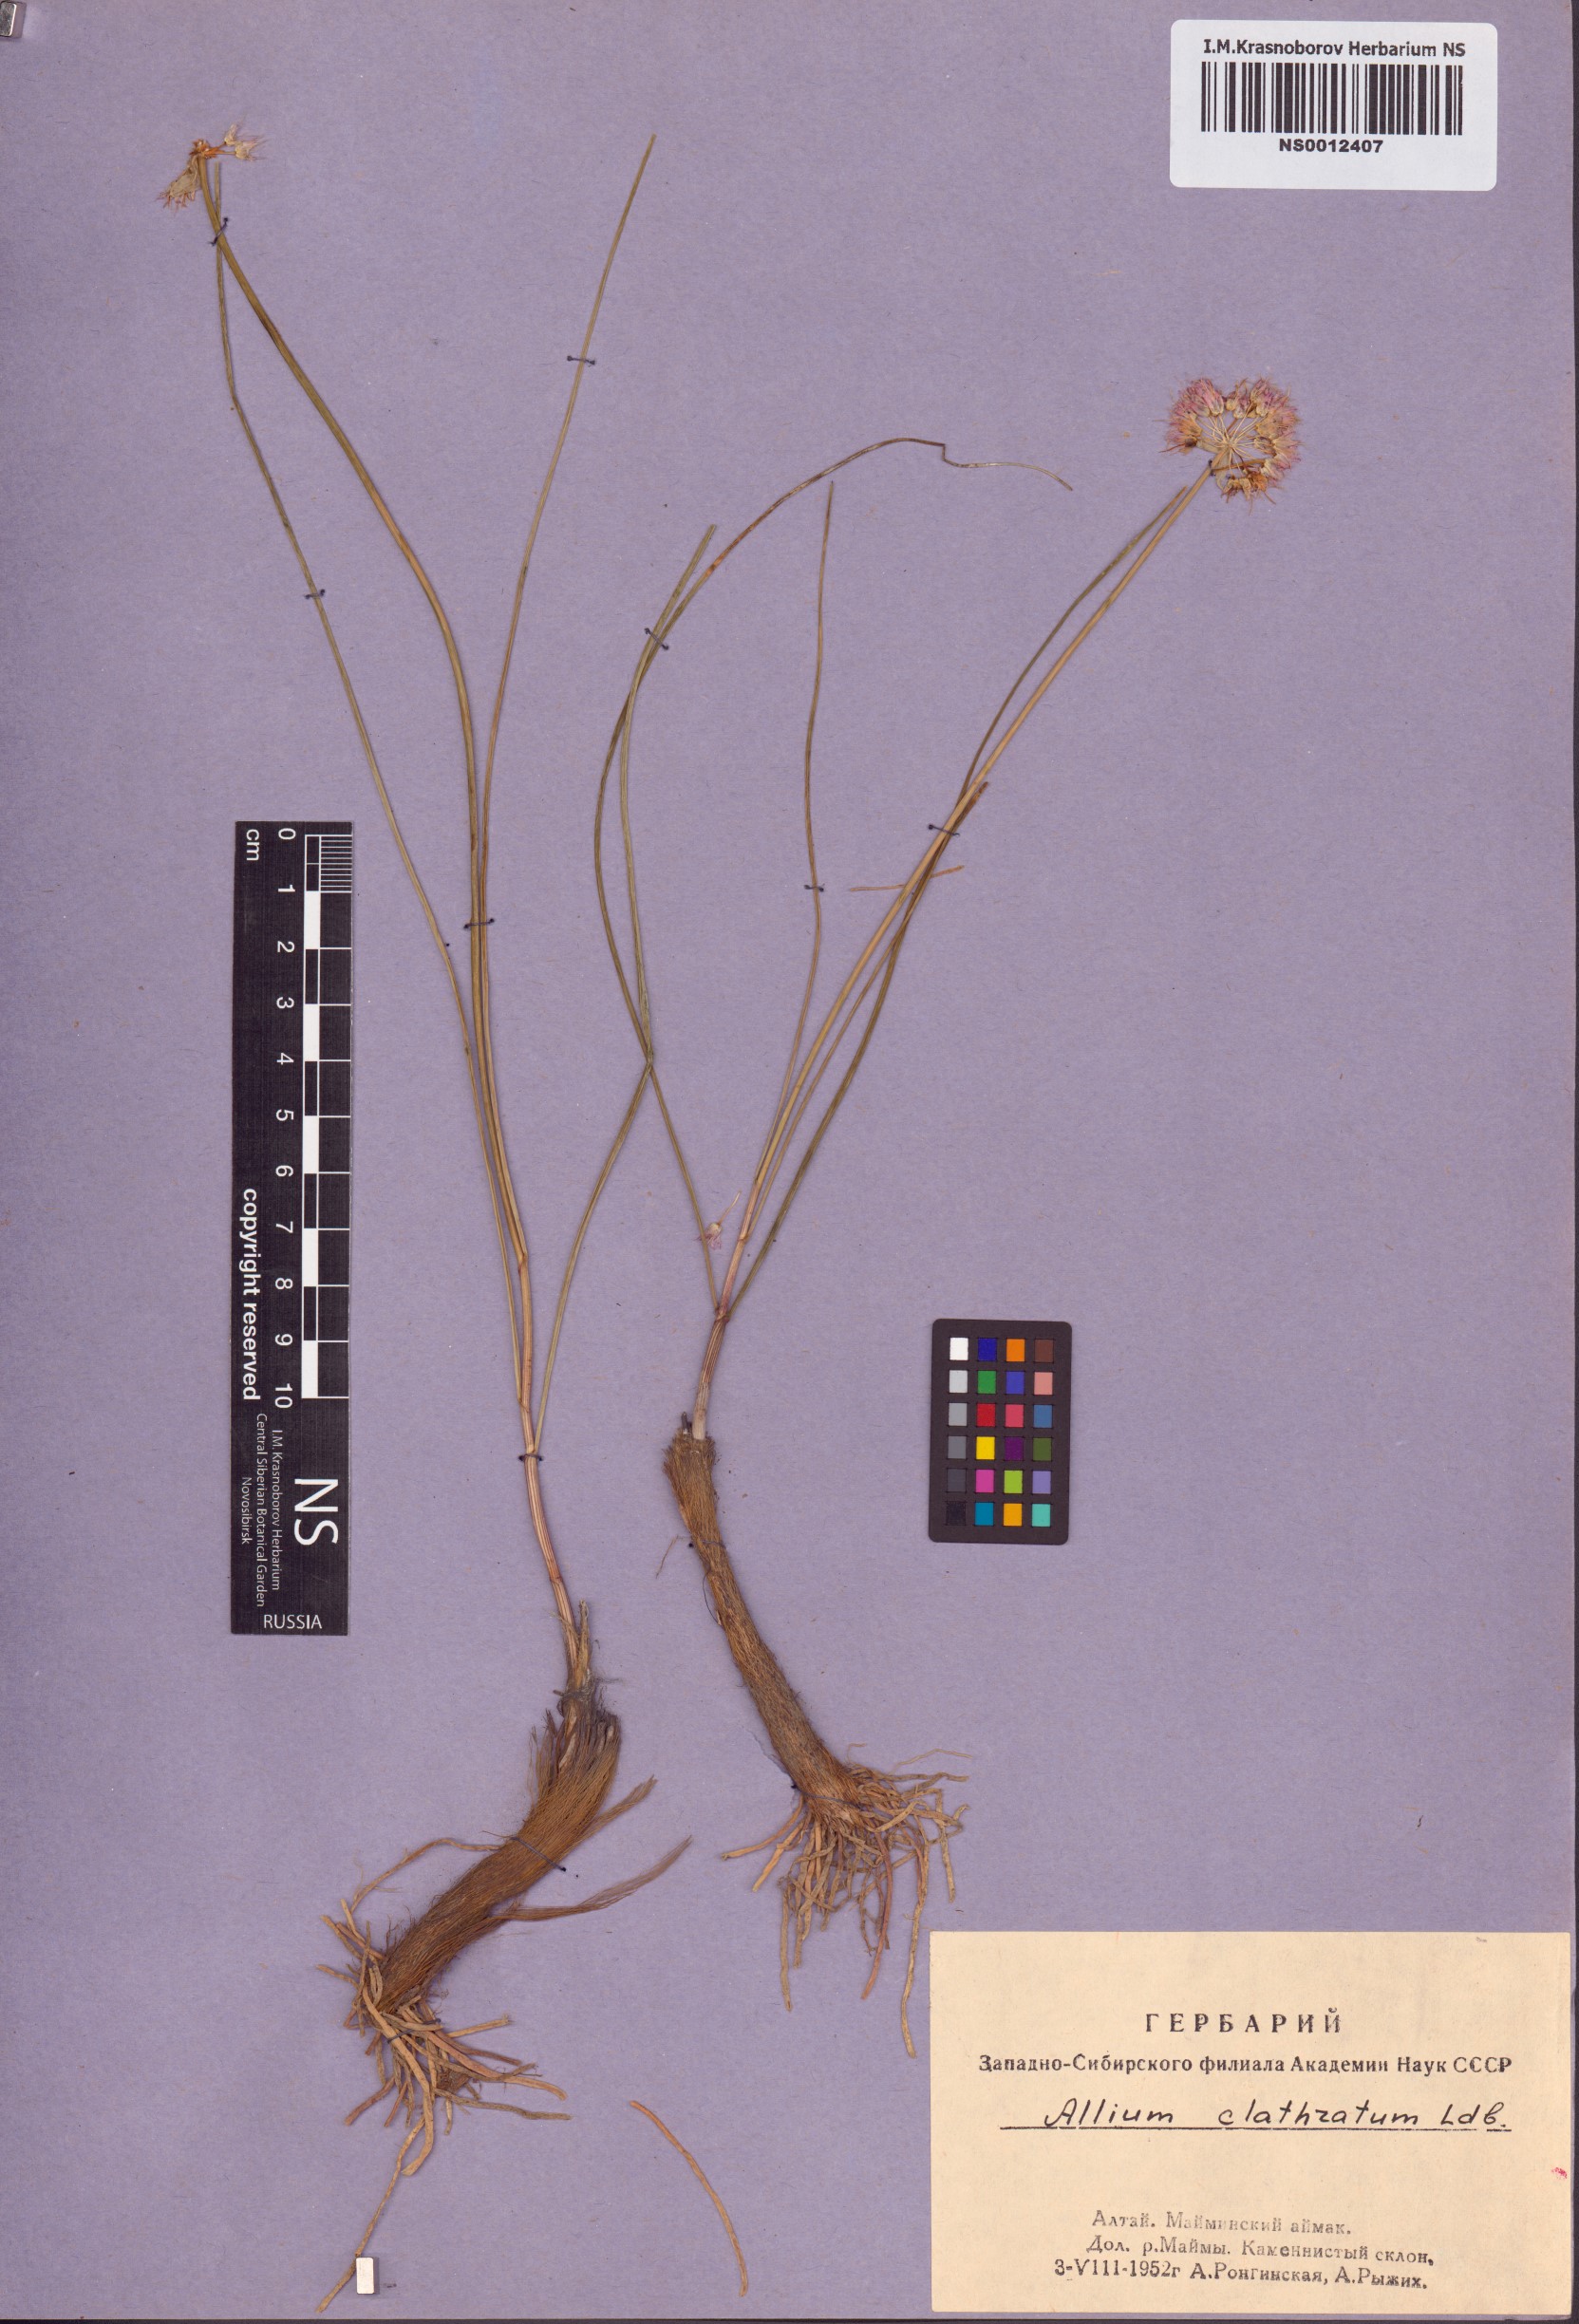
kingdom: Plantae
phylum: Tracheophyta
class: Liliopsida
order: Asparagales
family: Amaryllidaceae
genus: Allium
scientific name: Allium clathratum
